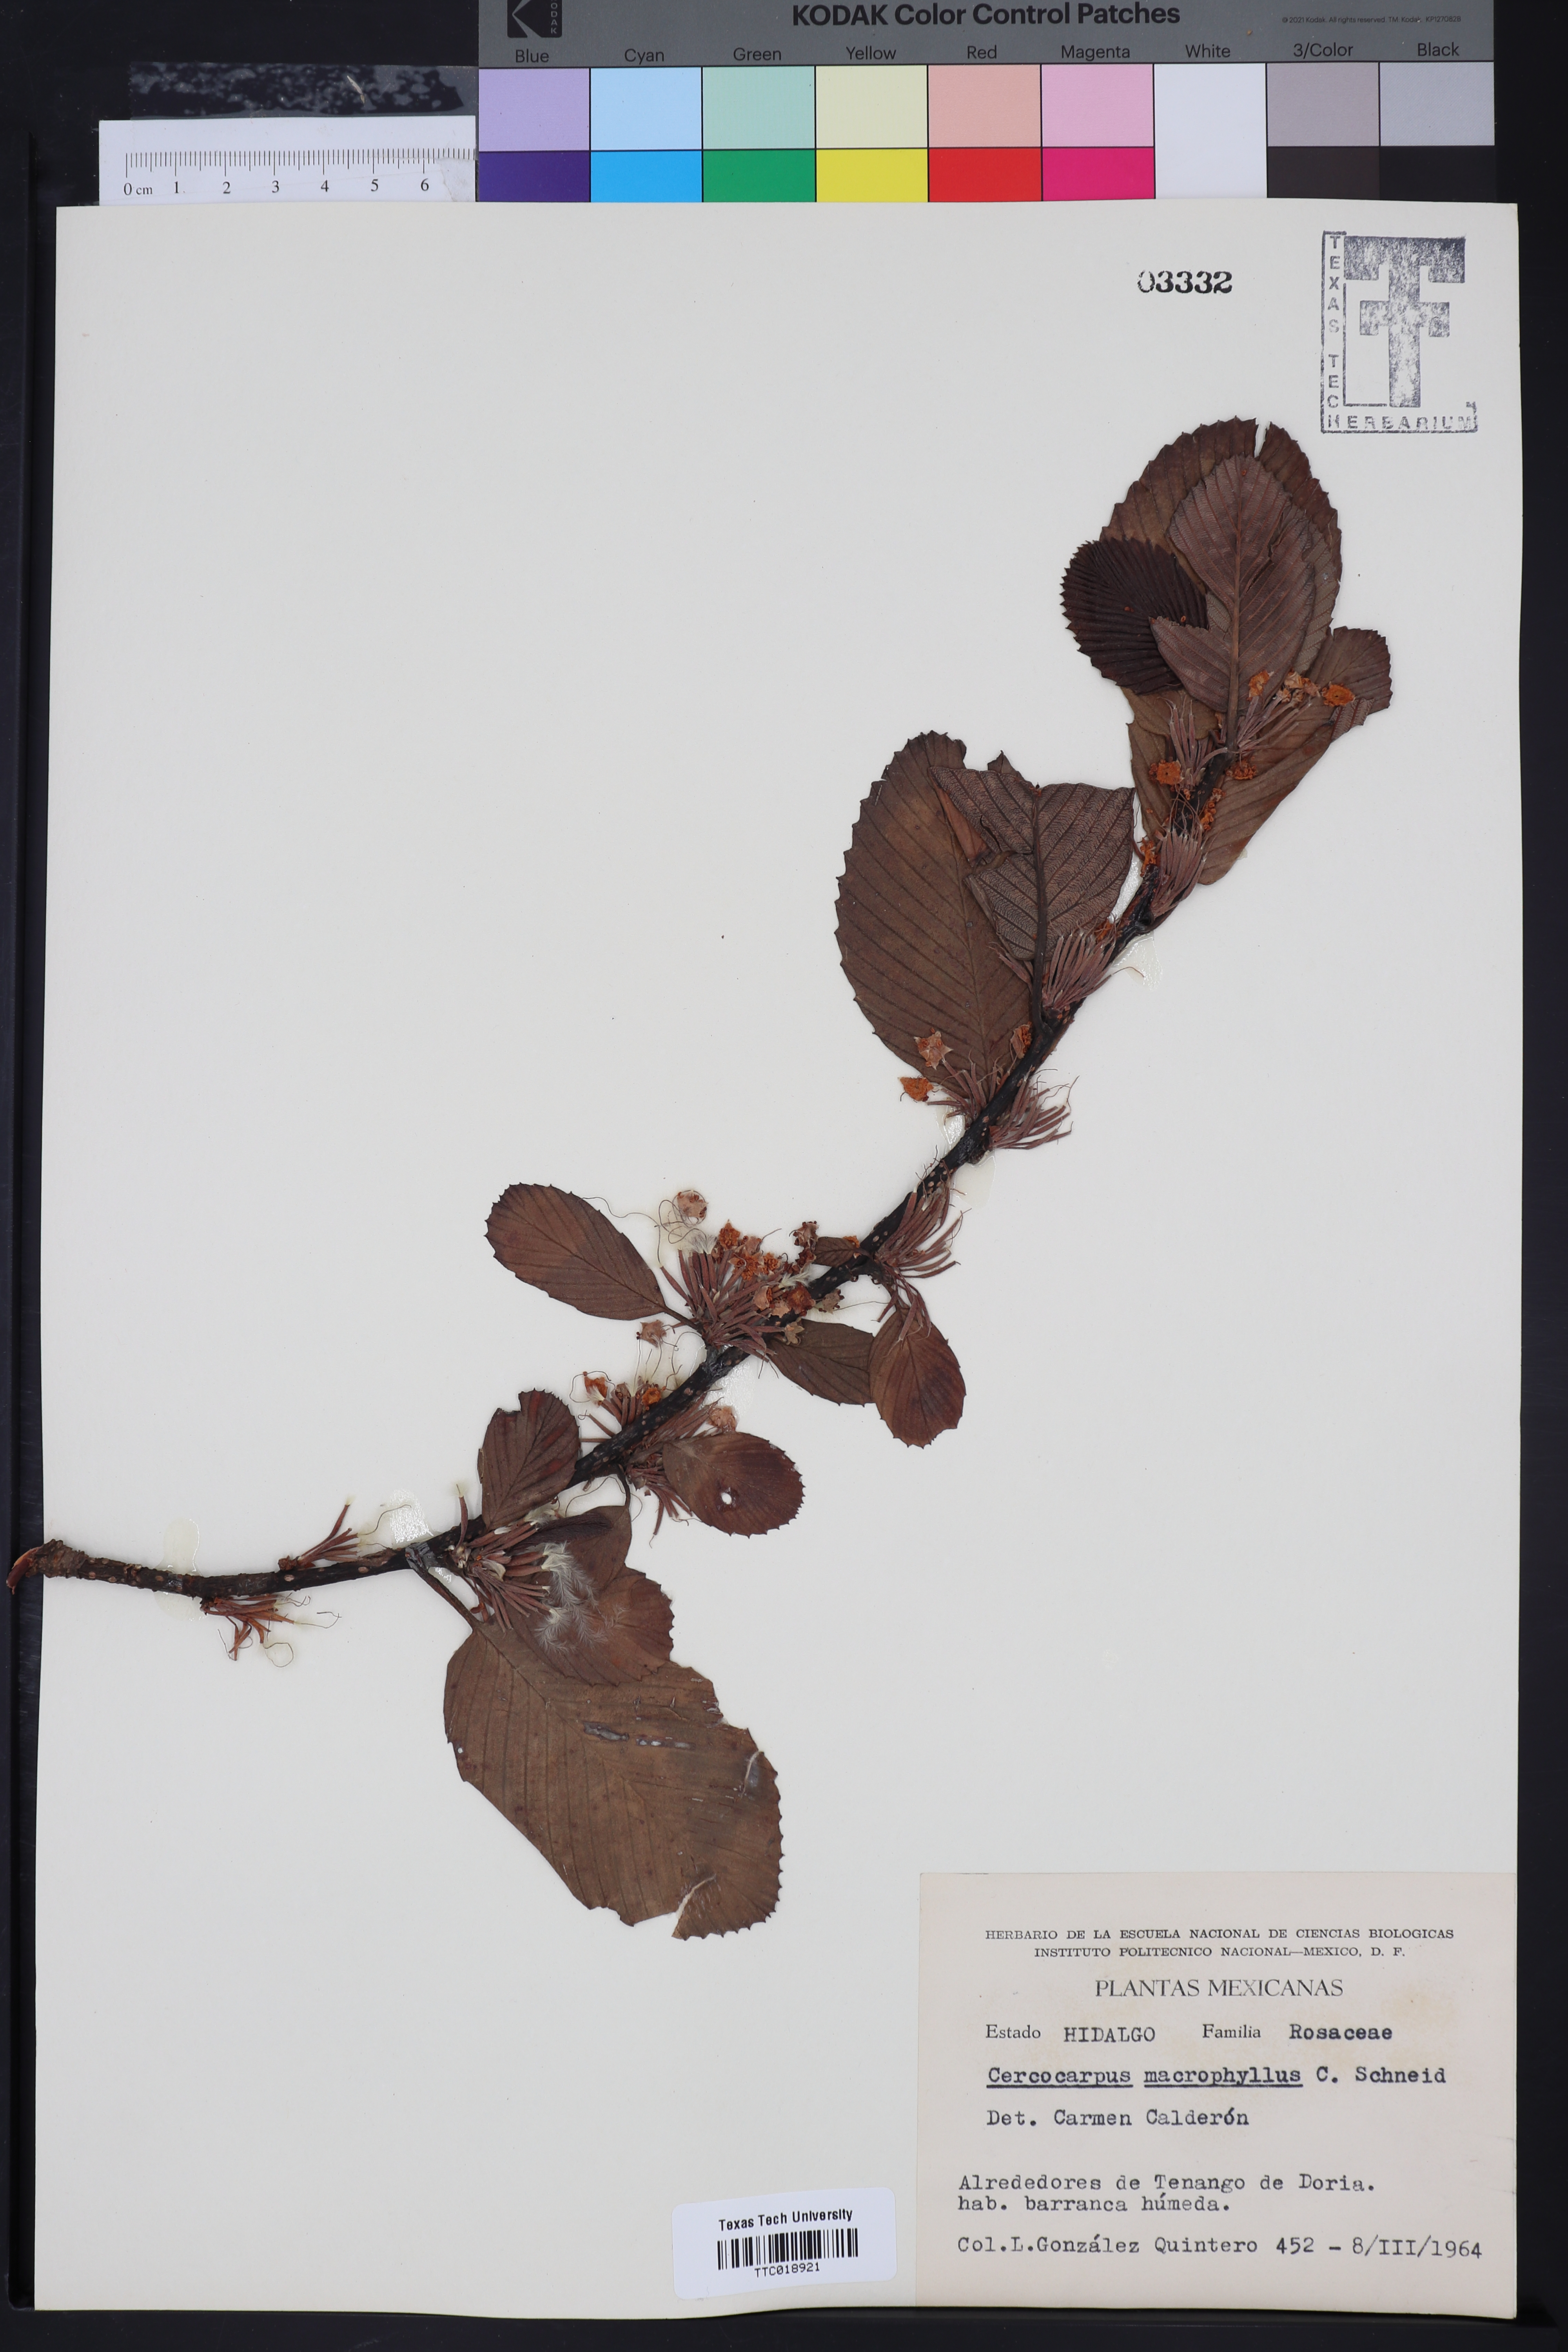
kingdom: Plantae
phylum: Tracheophyta
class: Magnoliopsida
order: Rosales
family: Rosaceae
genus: Cercocarpus
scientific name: Cercocarpus macrophyllus
